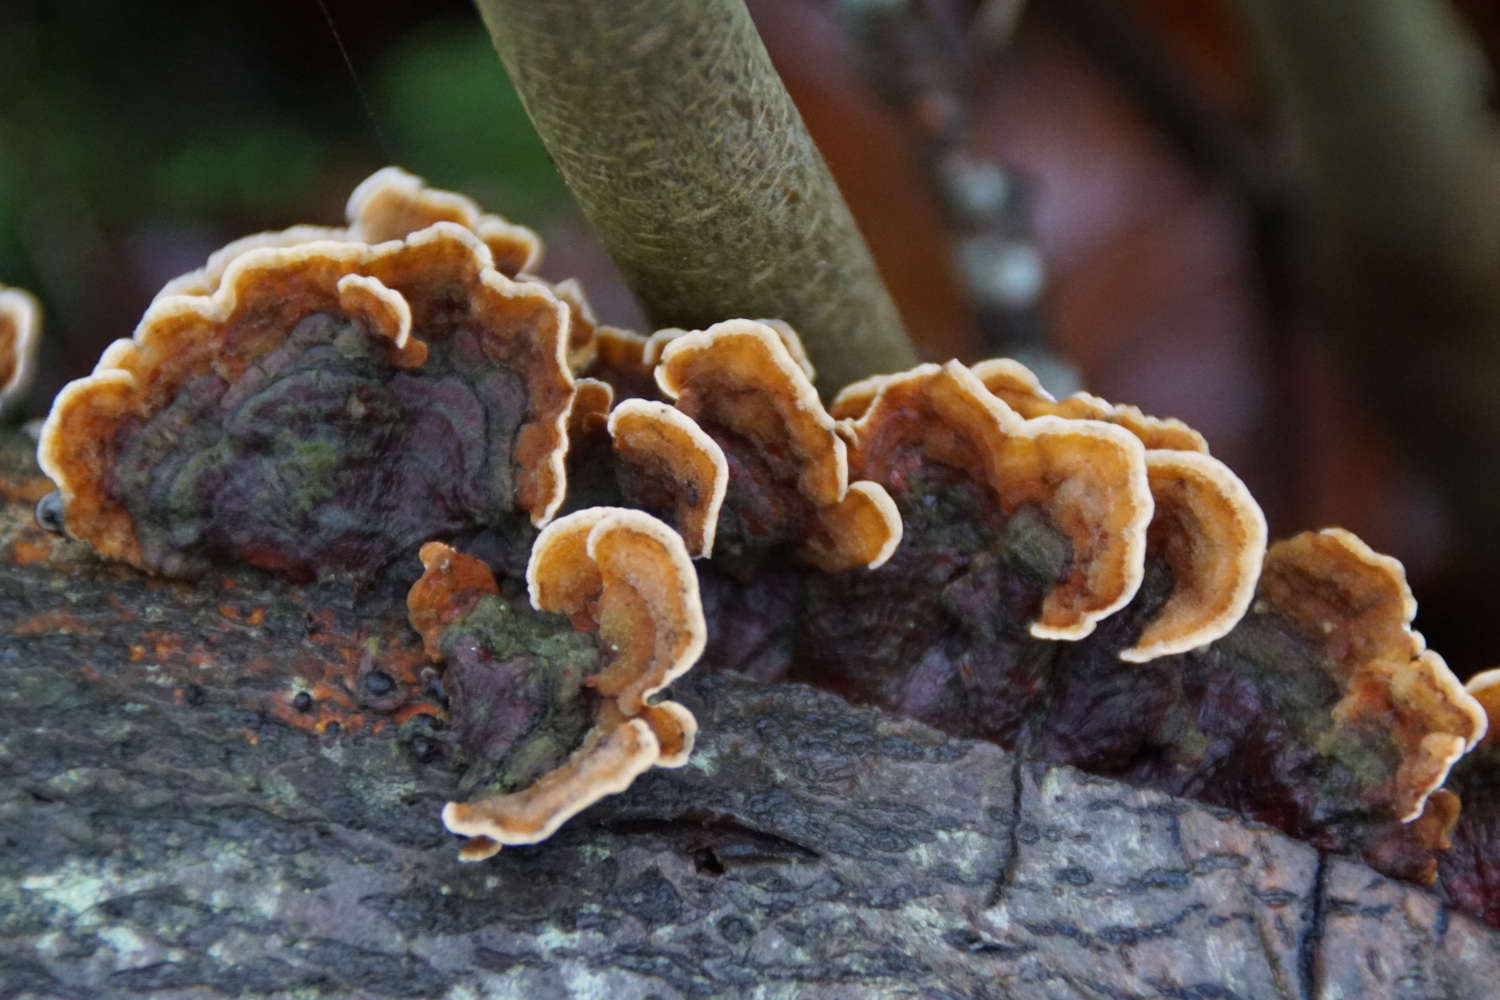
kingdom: Fungi
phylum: Basidiomycota
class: Agaricomycetes
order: Russulales
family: Stereaceae
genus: Stereum
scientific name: Stereum subtomentosum
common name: smuk lædersvamp
